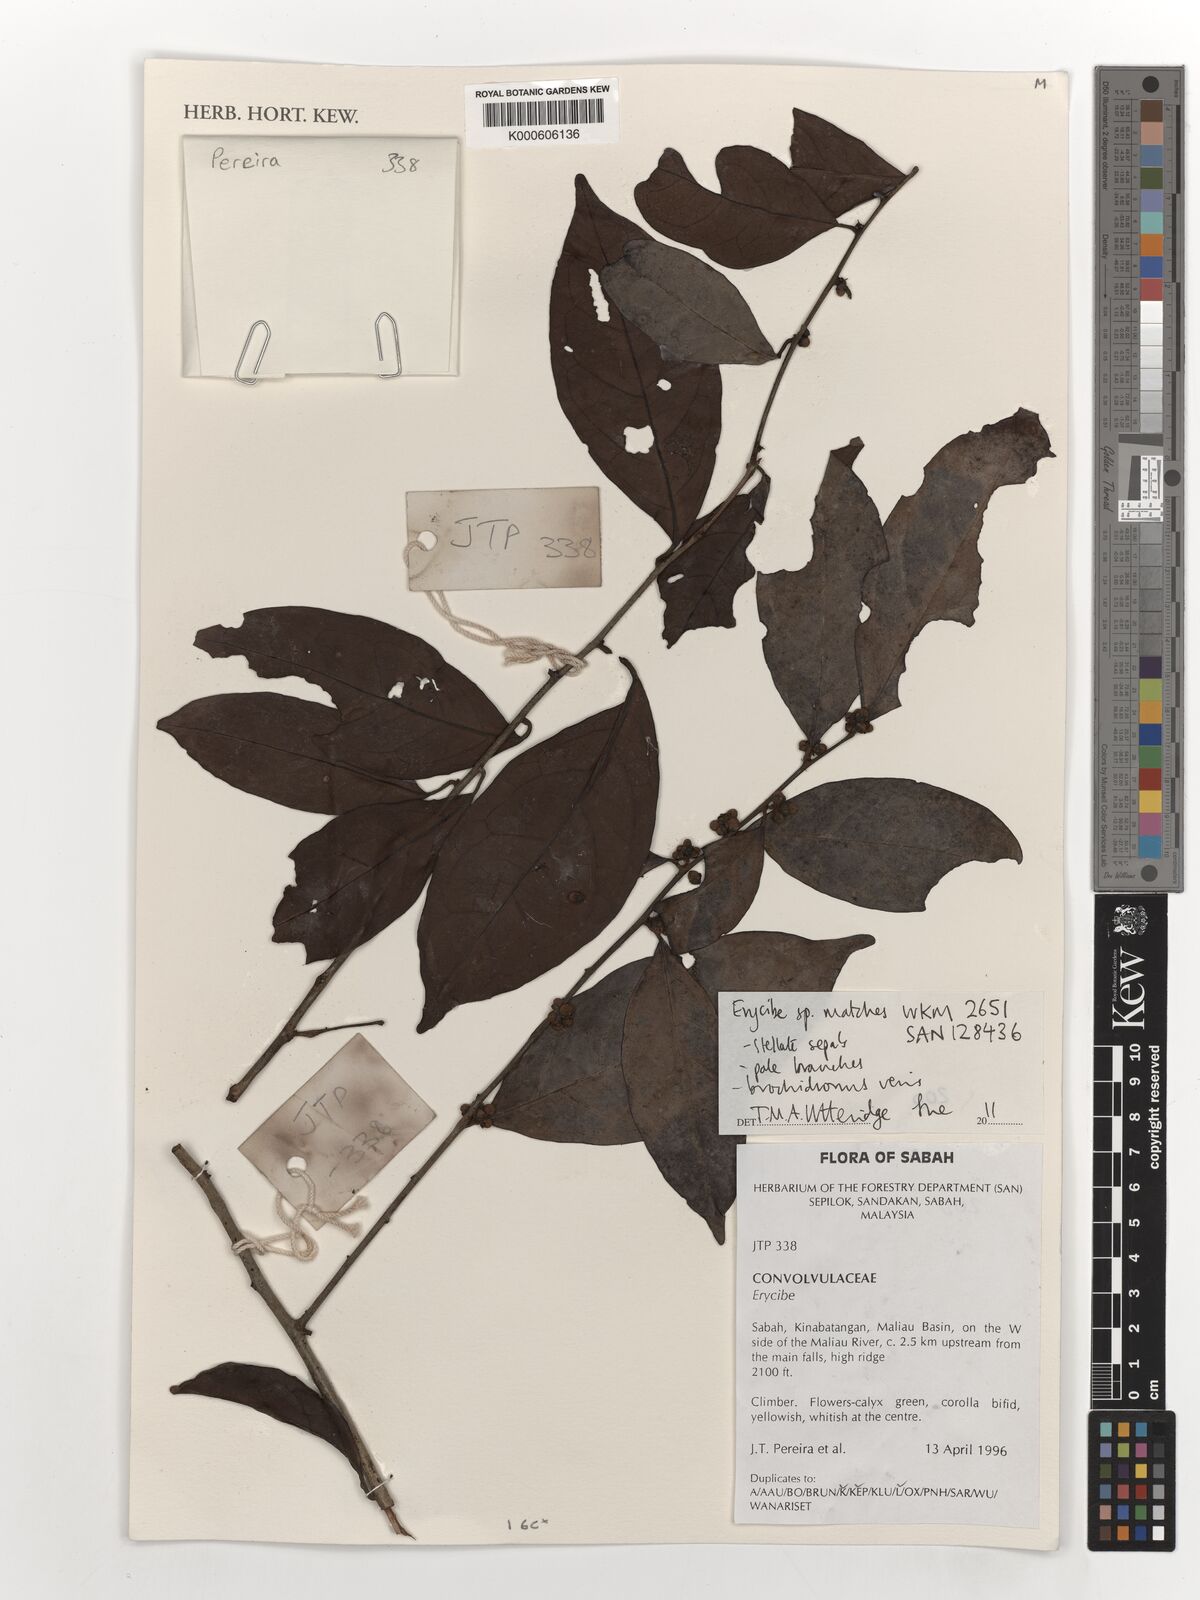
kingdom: Plantae
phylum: Tracheophyta
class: Magnoliopsida
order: Solanales
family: Convolvulaceae
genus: Erycibe
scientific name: Erycibe
